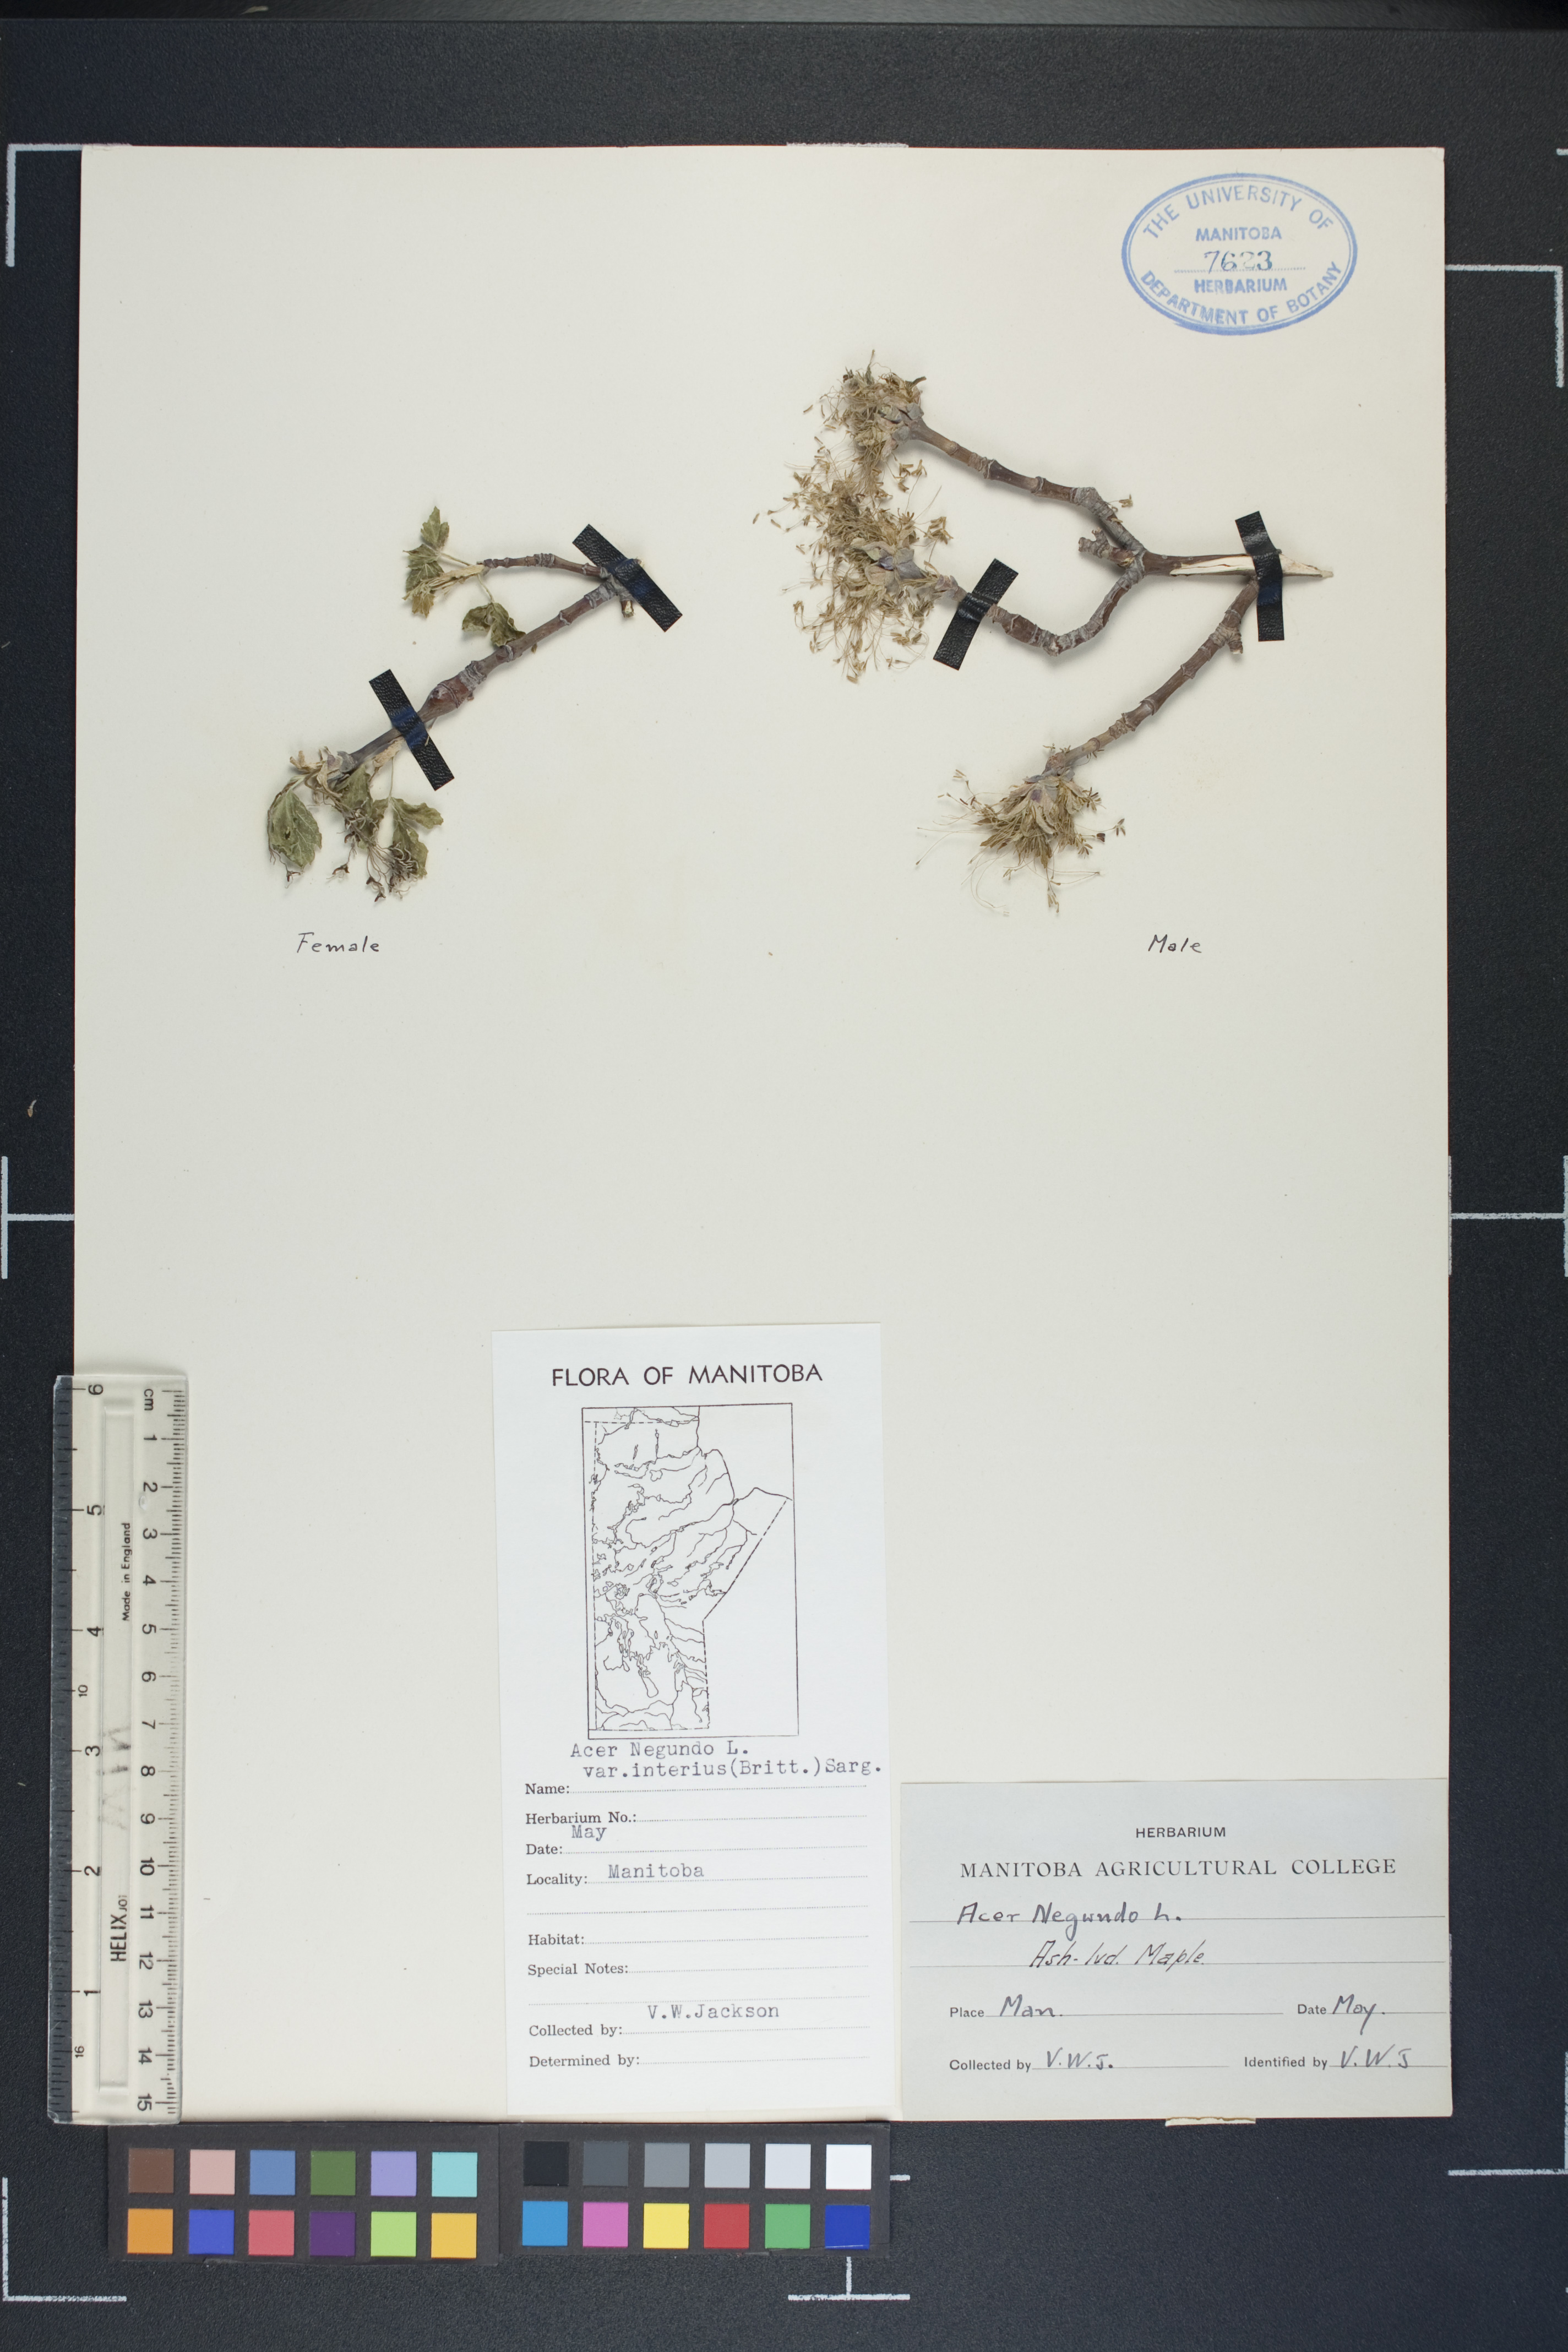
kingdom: Plantae
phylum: Tracheophyta
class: Magnoliopsida
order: Sapindales
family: Sapindaceae
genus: Acer
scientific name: Acer negundo
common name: Ashleaf maple
